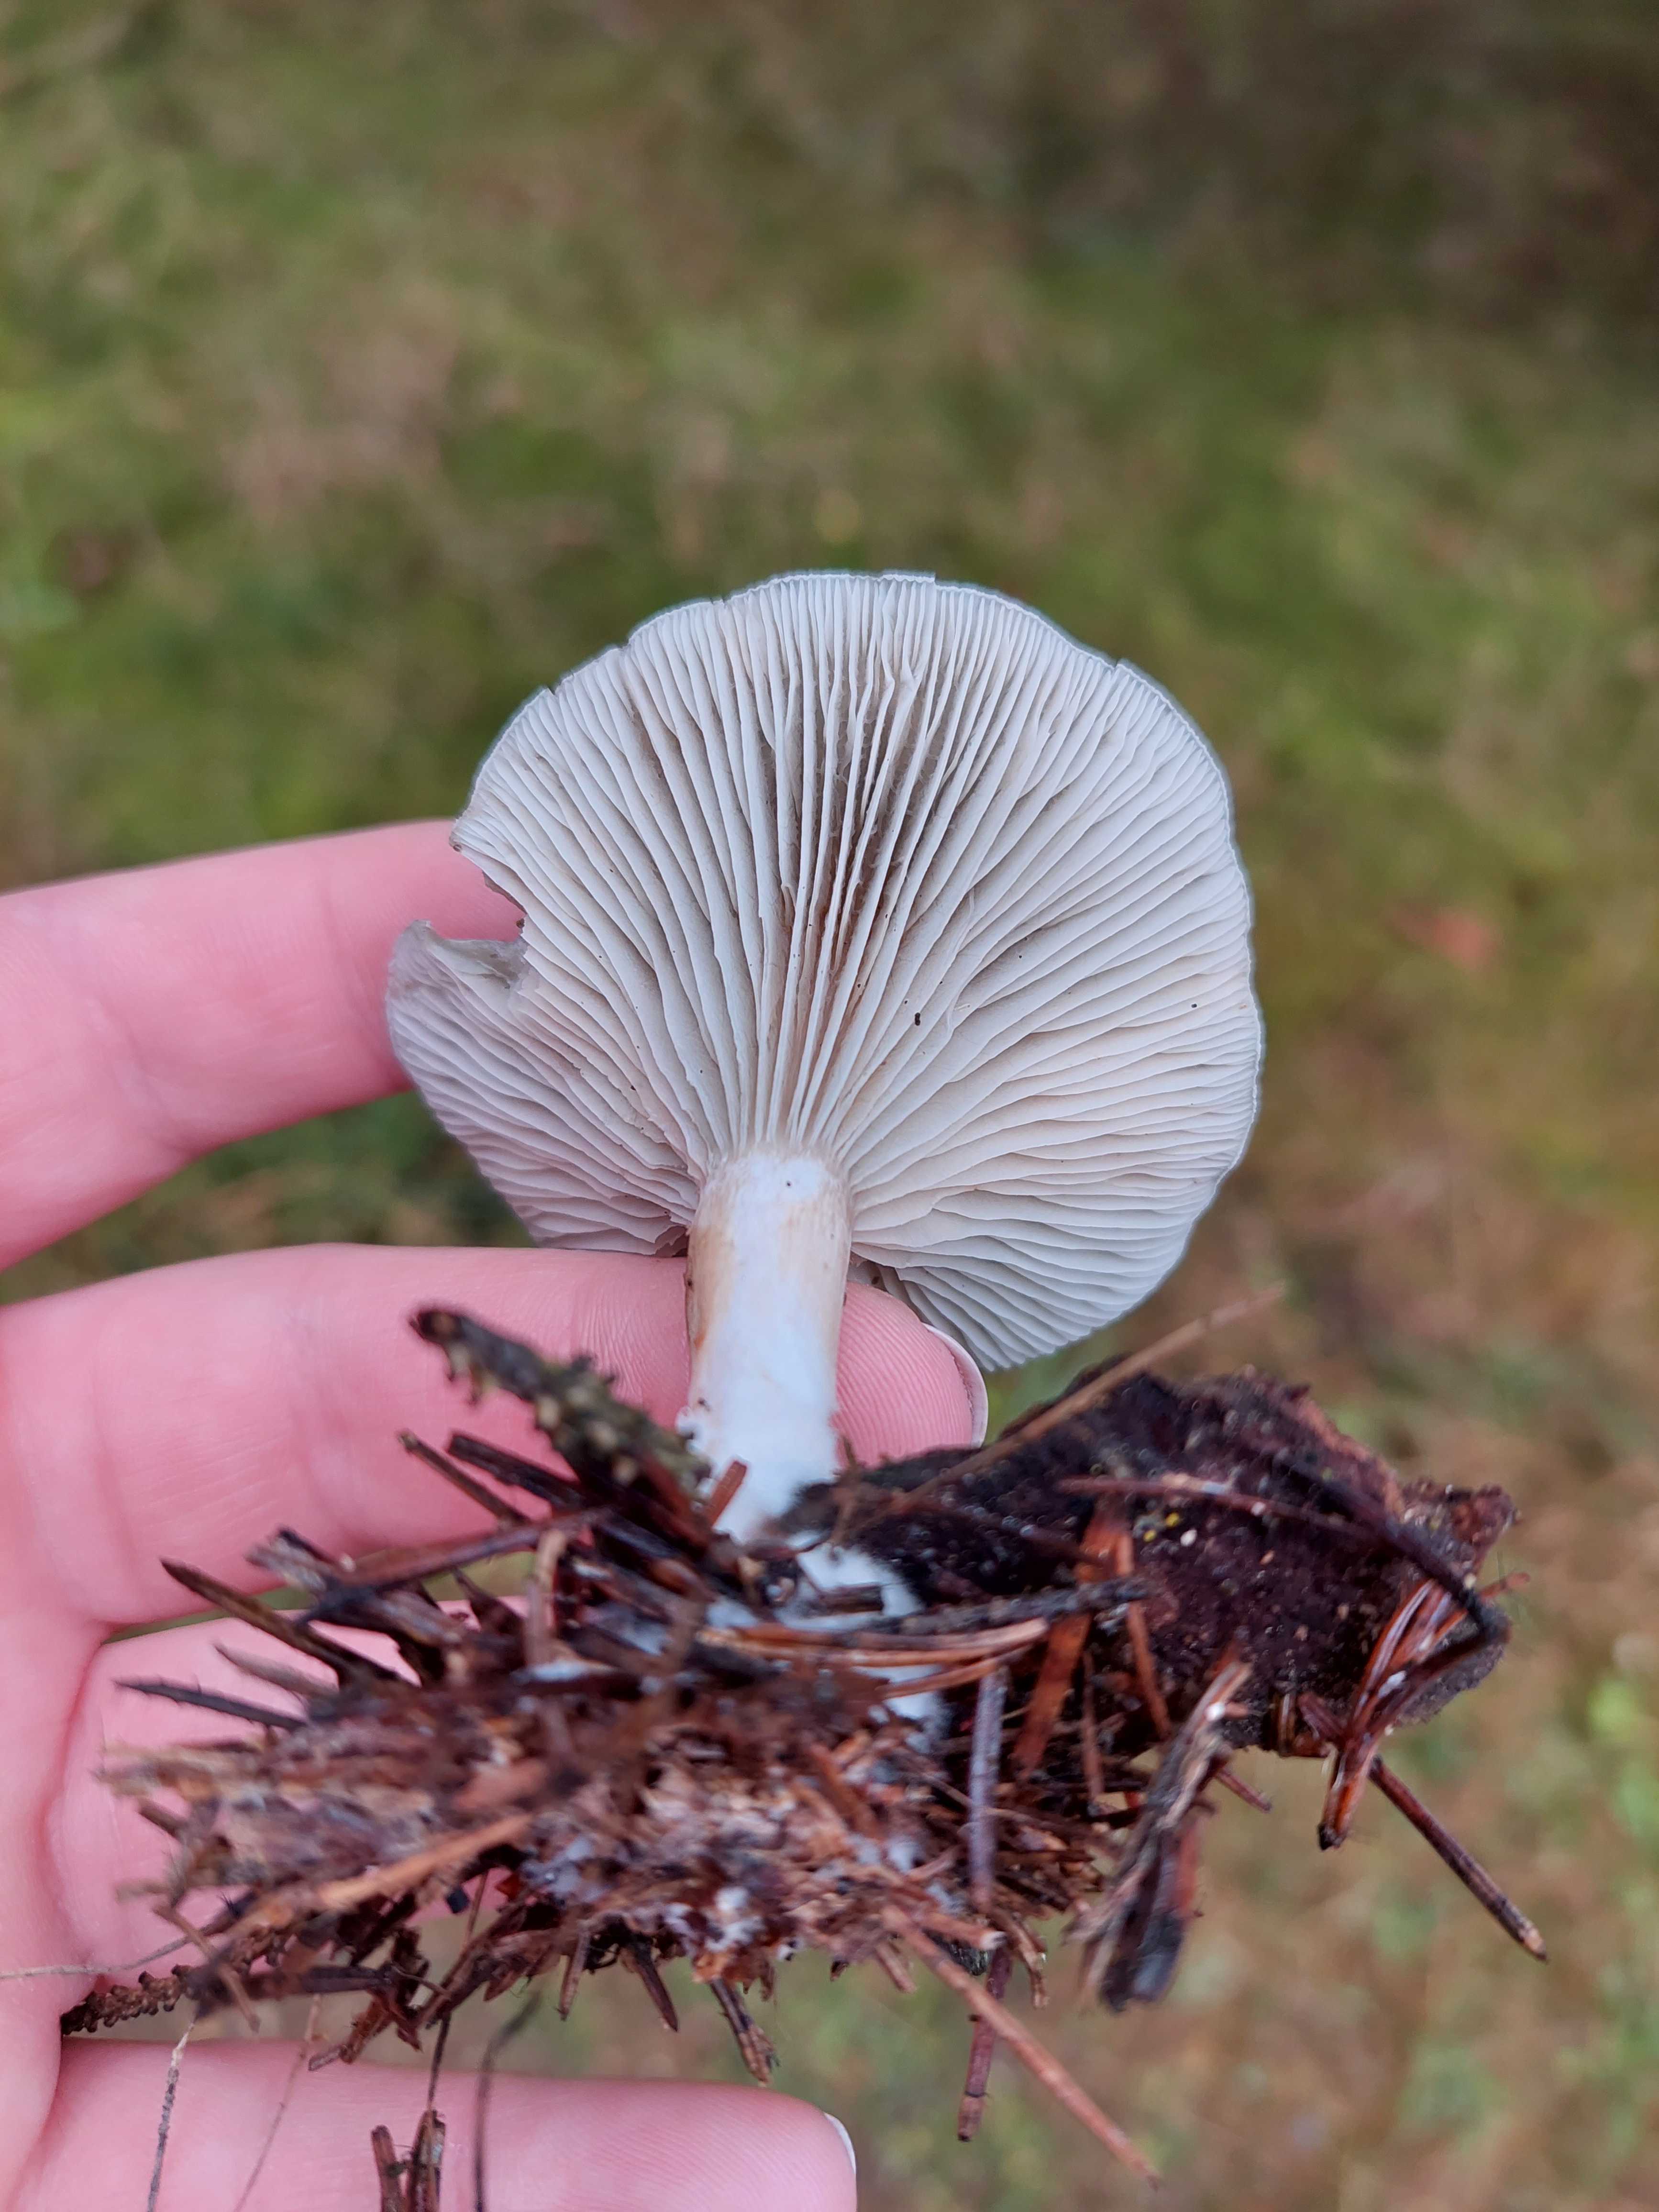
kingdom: Fungi
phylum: Basidiomycota
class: Agaricomycetes
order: Agaricales
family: Tricholomataceae
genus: Clitocybe
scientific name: Clitocybe odora
